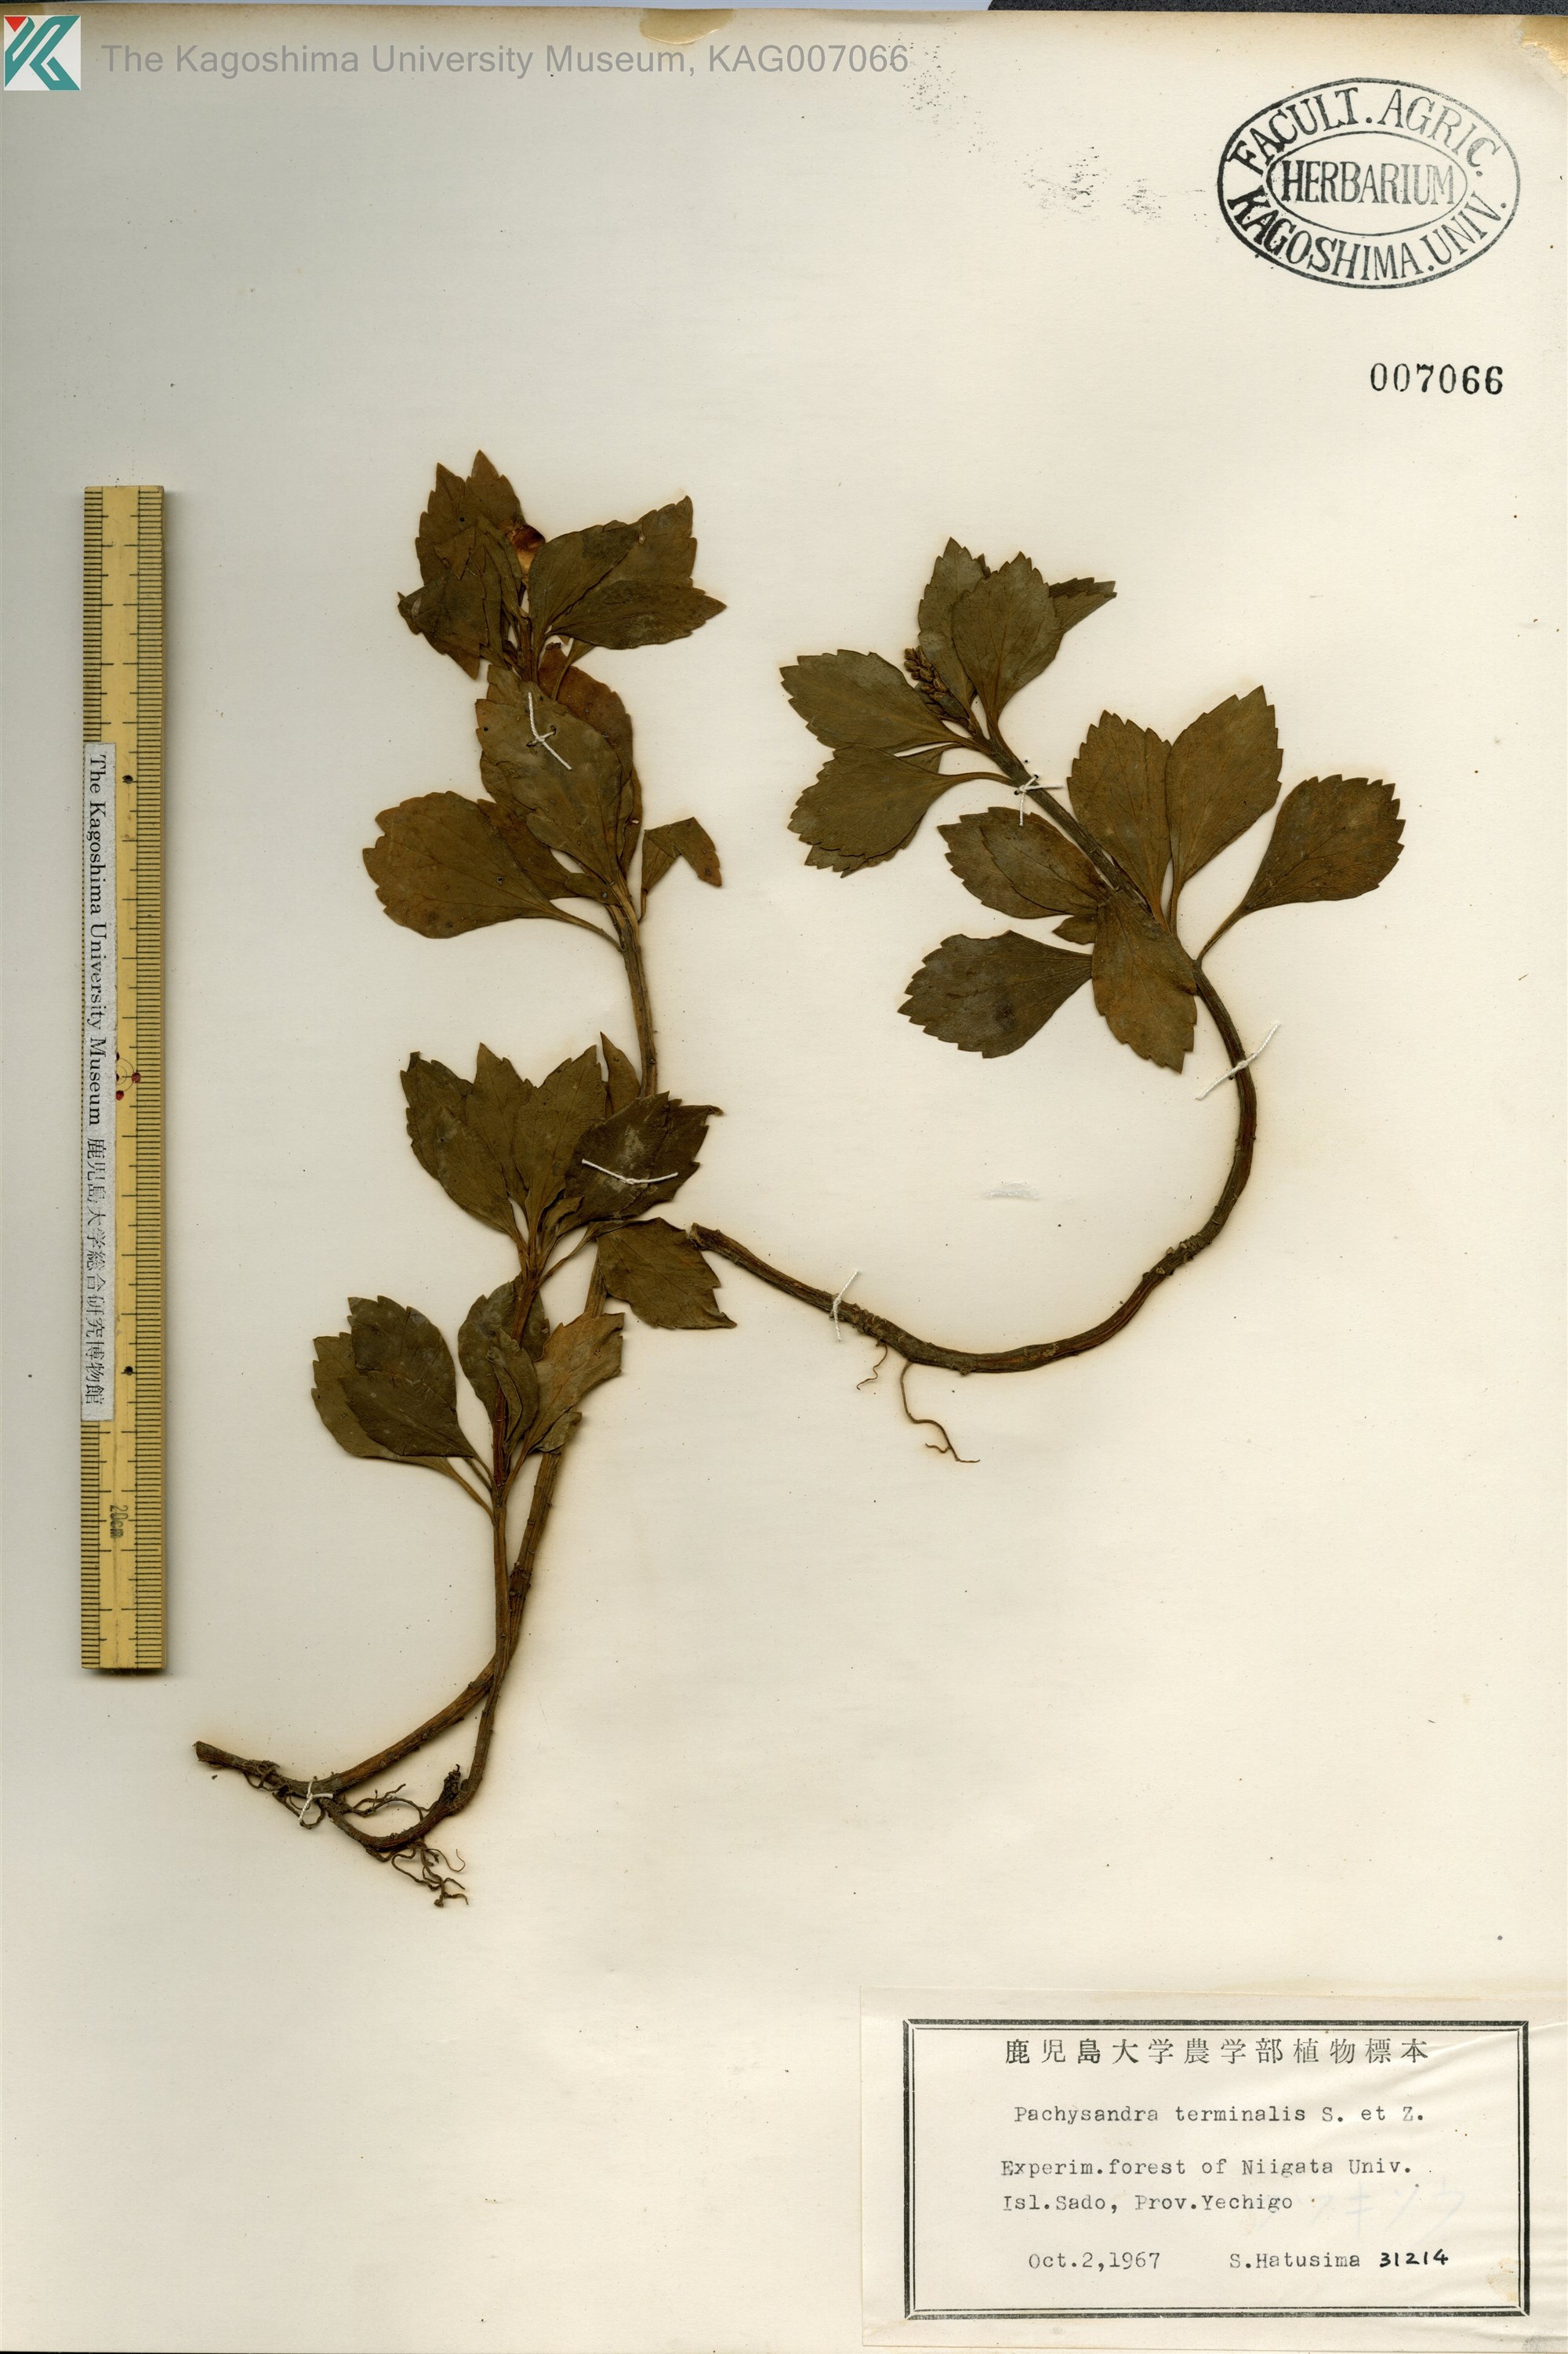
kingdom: Plantae
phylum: Tracheophyta
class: Magnoliopsida
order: Buxales
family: Buxaceae
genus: Pachysandra
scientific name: Pachysandra terminalis
